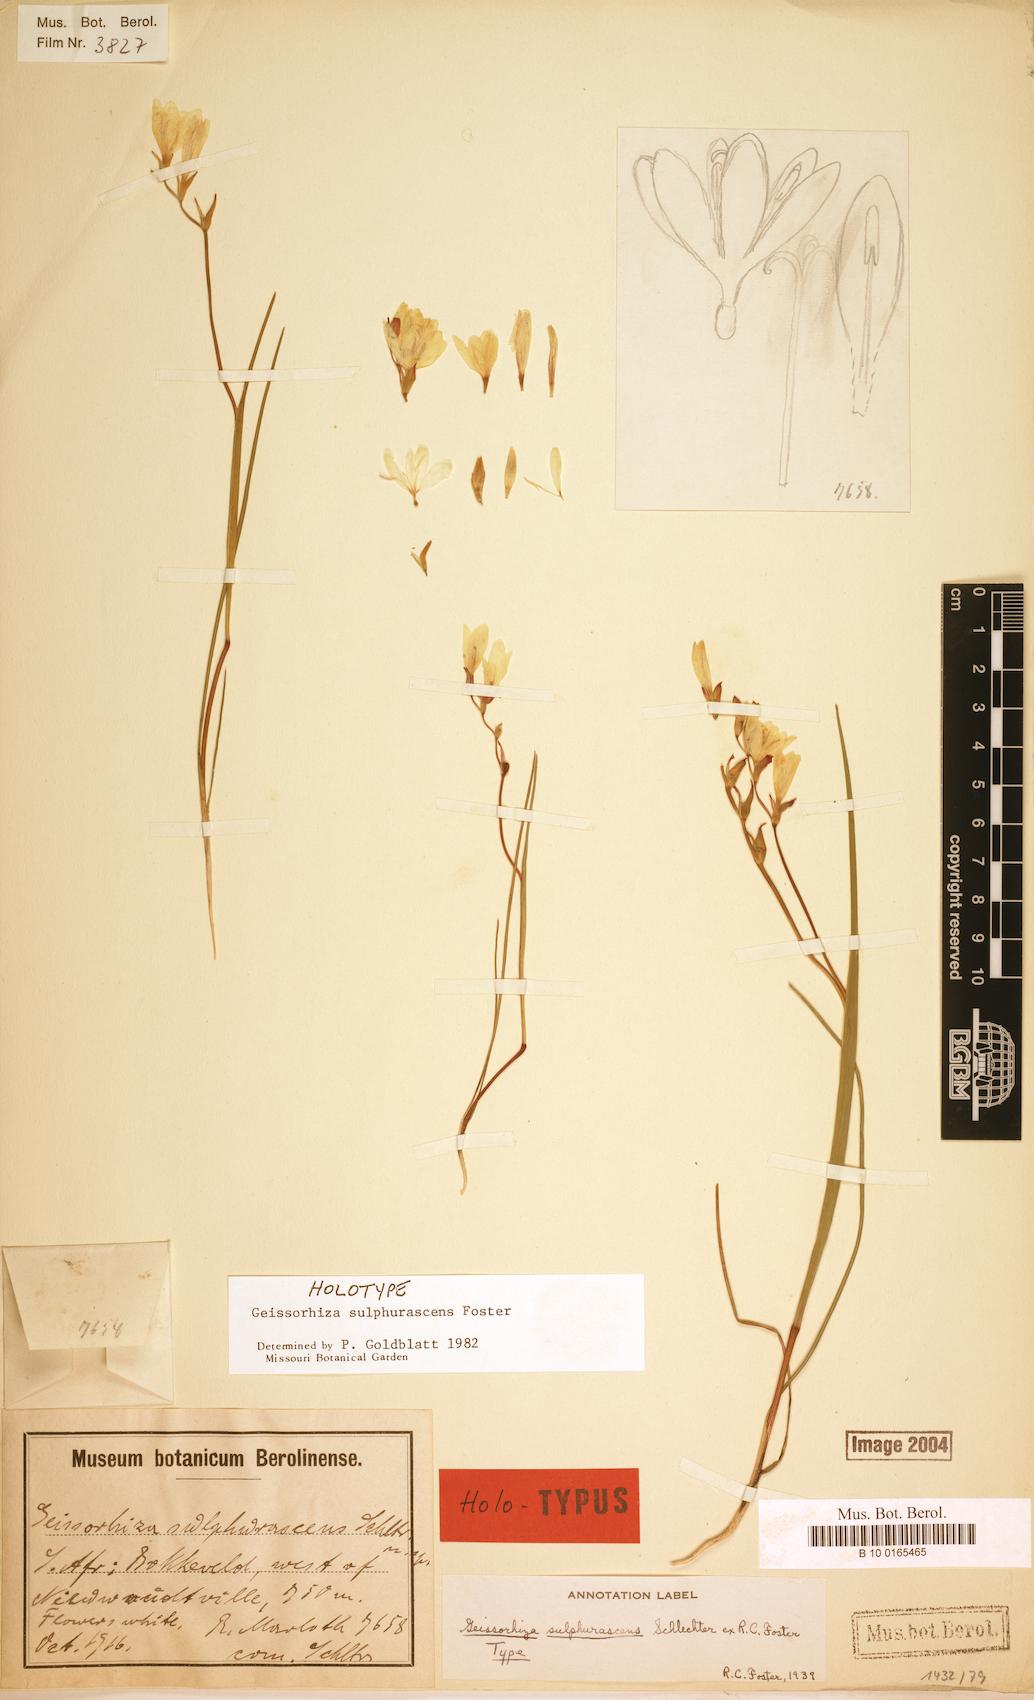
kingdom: Plantae
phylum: Tracheophyta
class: Liliopsida
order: Asparagales
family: Iridaceae
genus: Geissorhiza
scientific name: Geissorhiza sulphurascens
